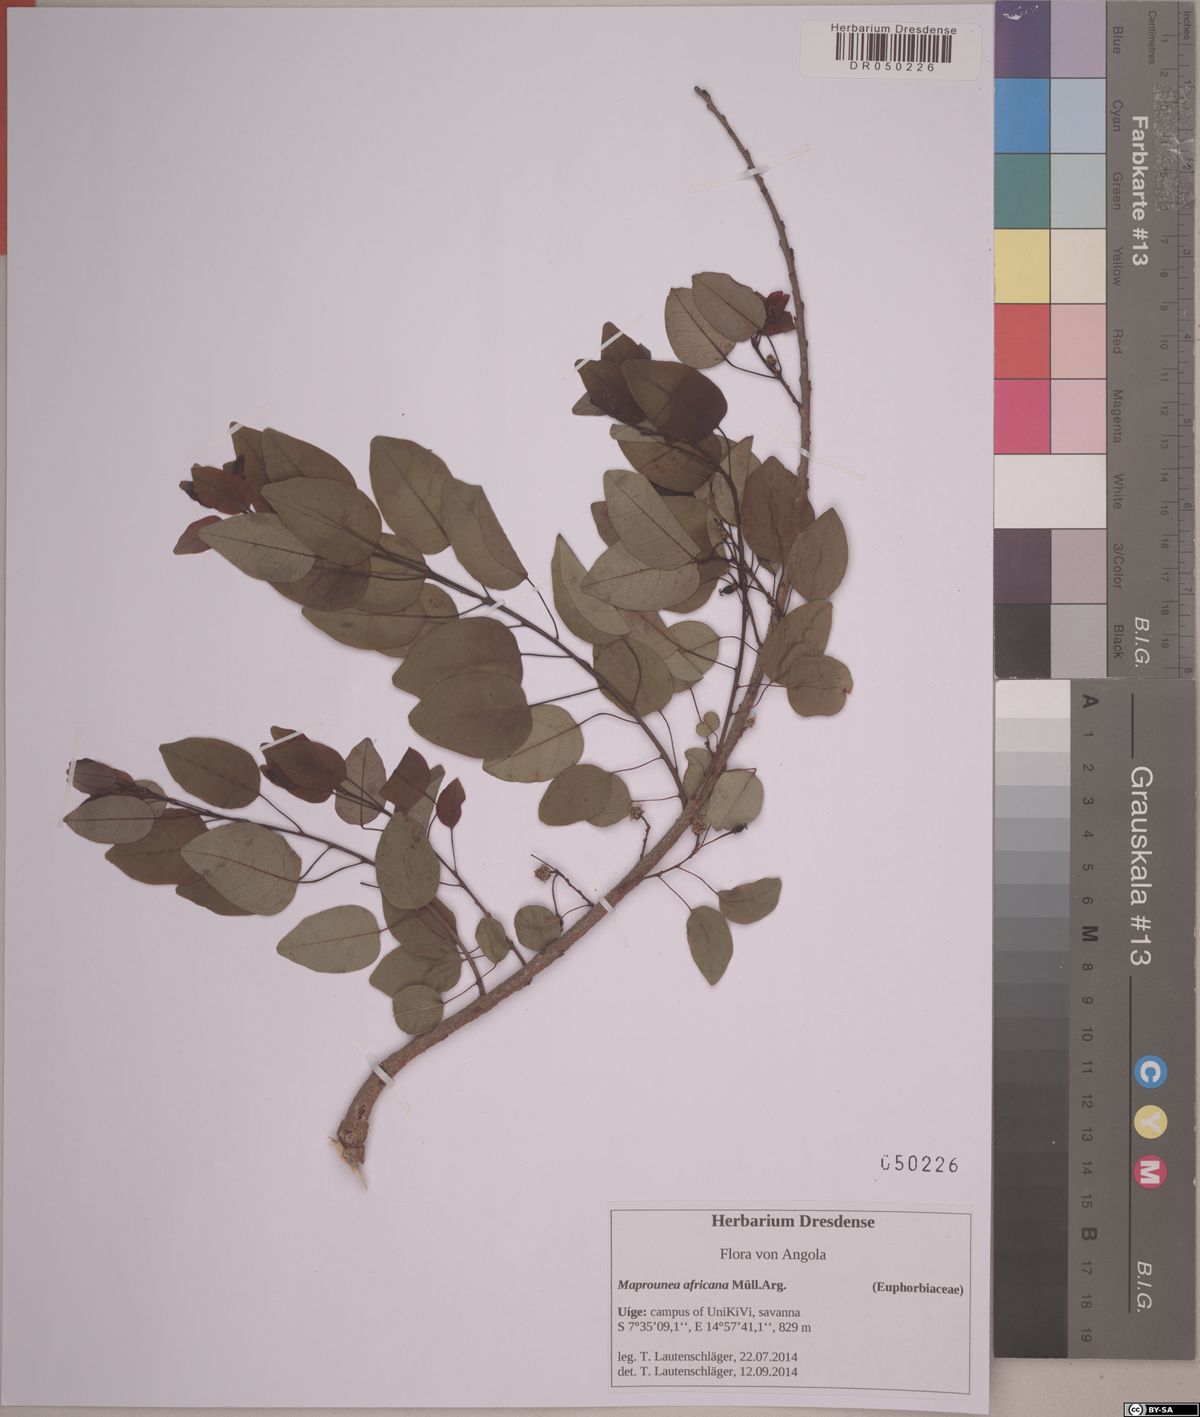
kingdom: Plantae
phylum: Tracheophyta
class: Magnoliopsida
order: Malpighiales
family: Euphorbiaceae
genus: Maprounea
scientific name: Maprounea africana
